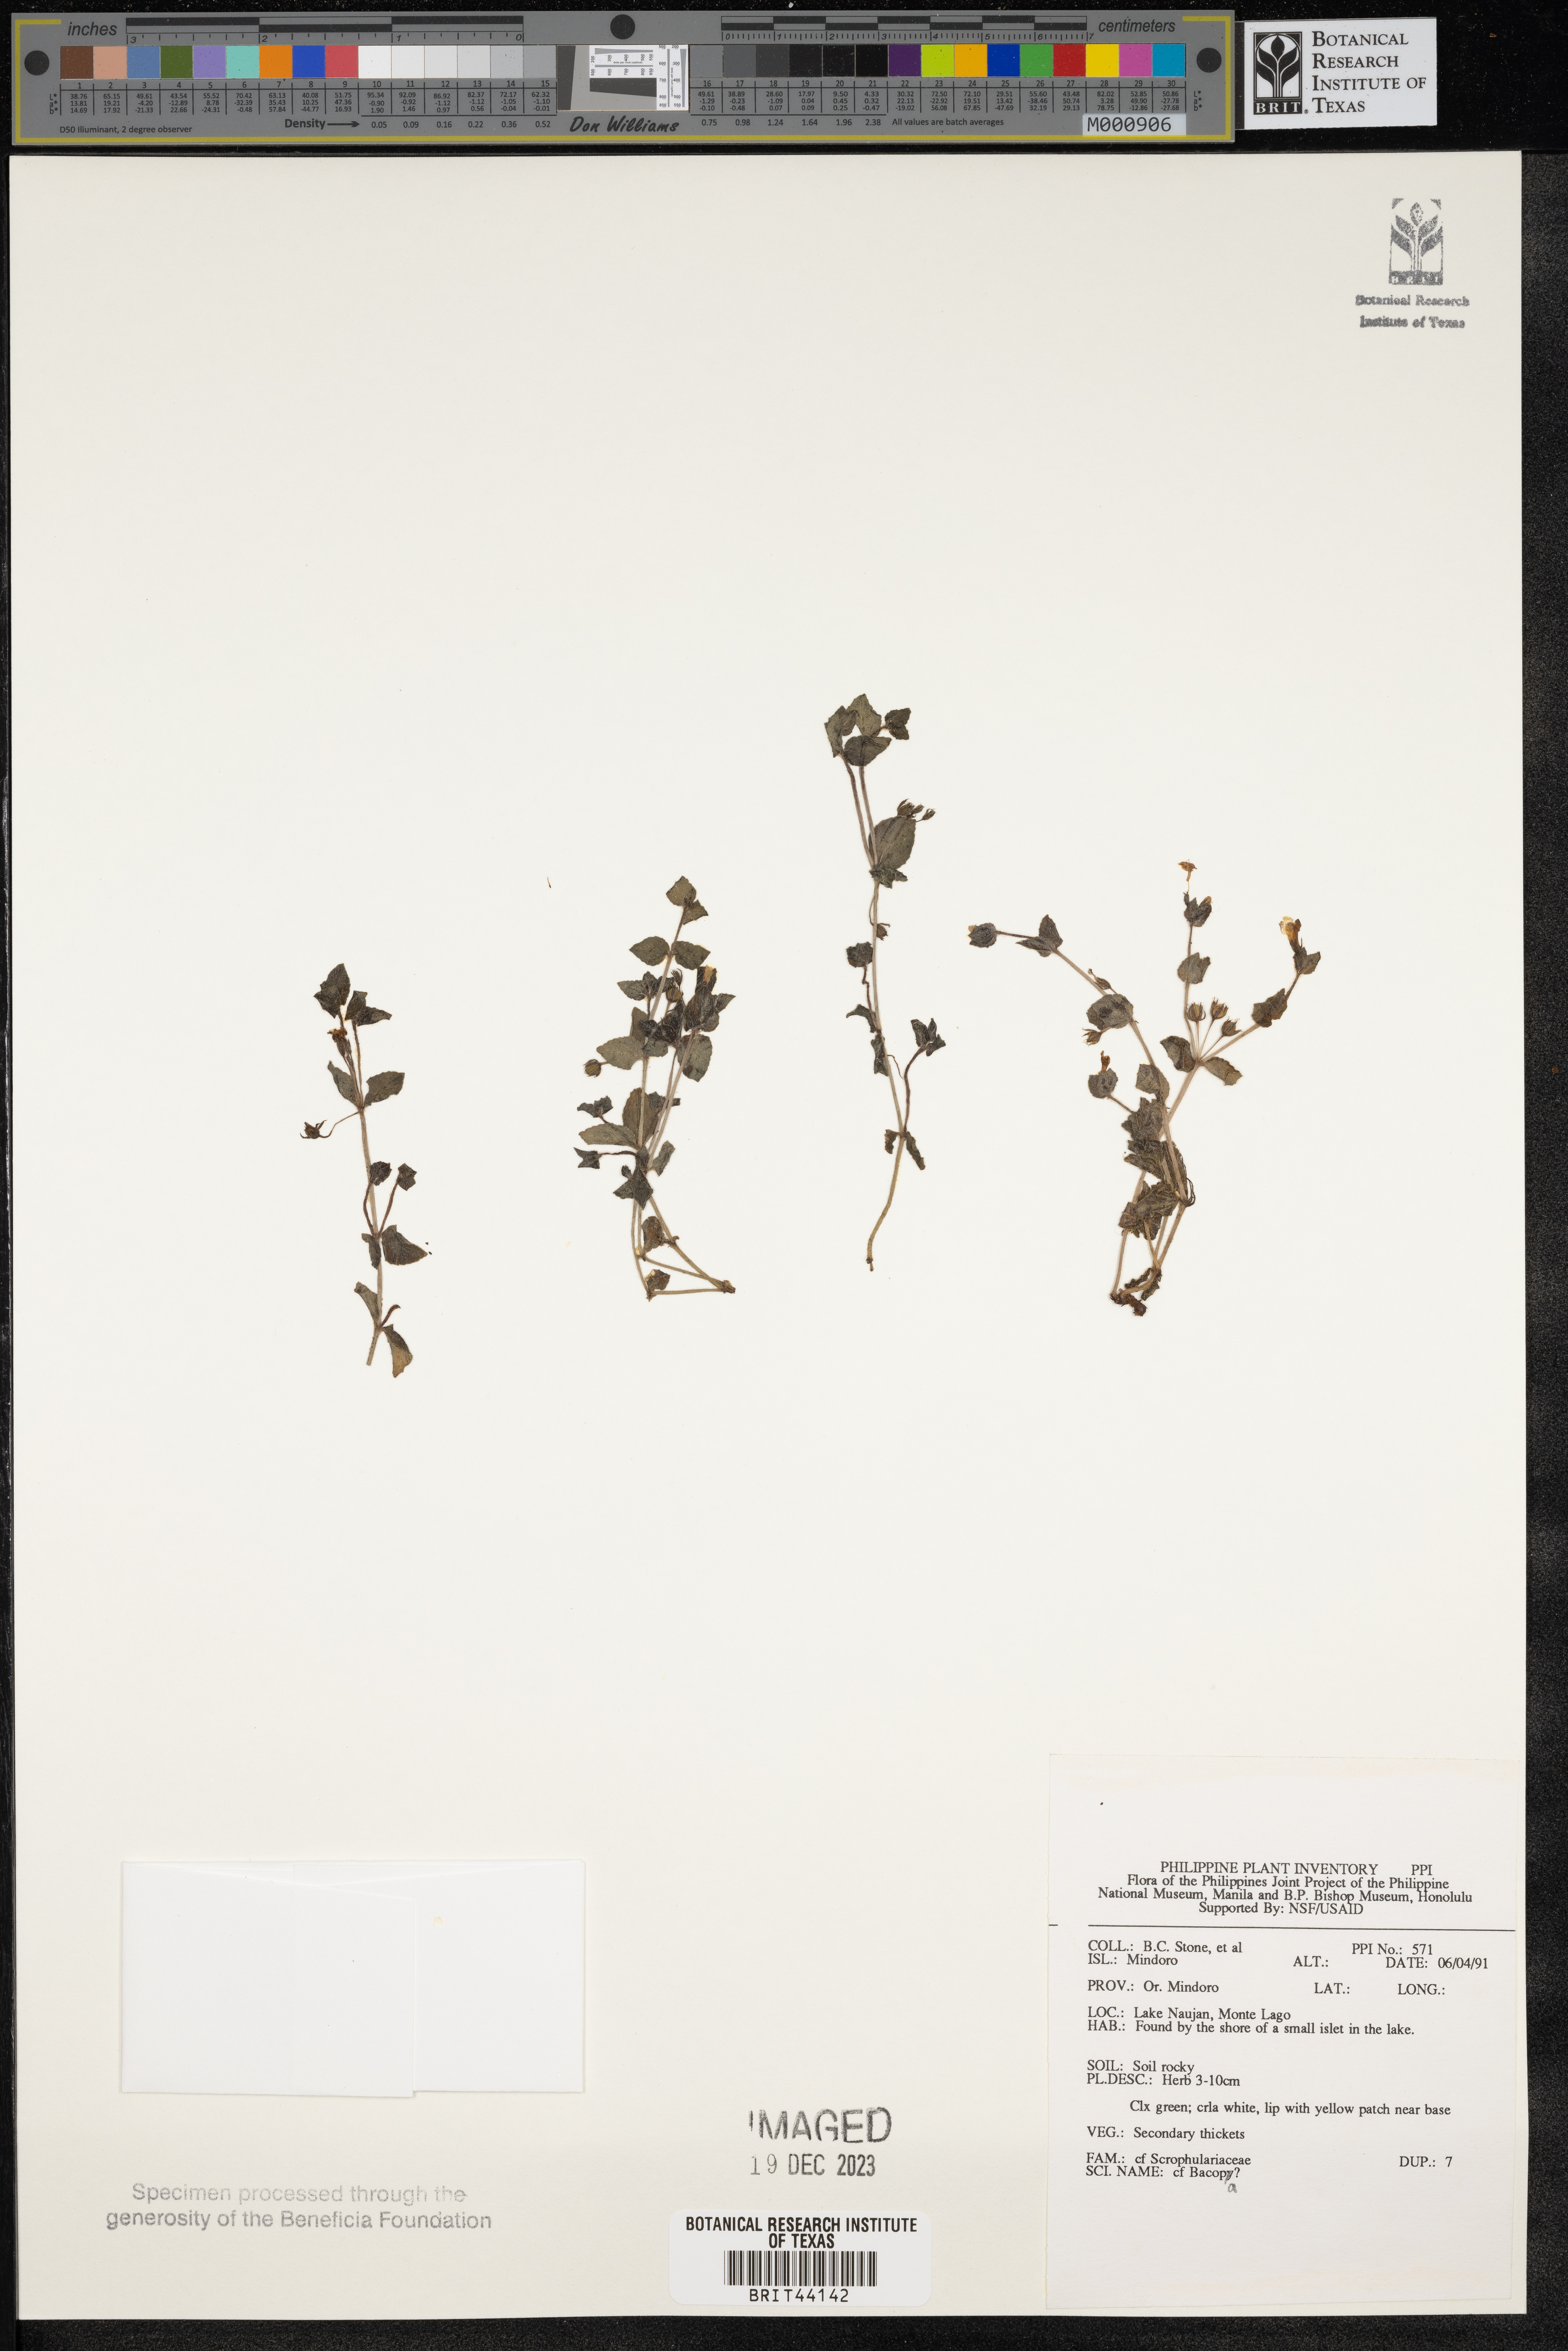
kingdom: Plantae
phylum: Tracheophyta
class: Magnoliopsida
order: Lamiales
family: Plantaginaceae
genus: Bacopa
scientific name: Bacopa
